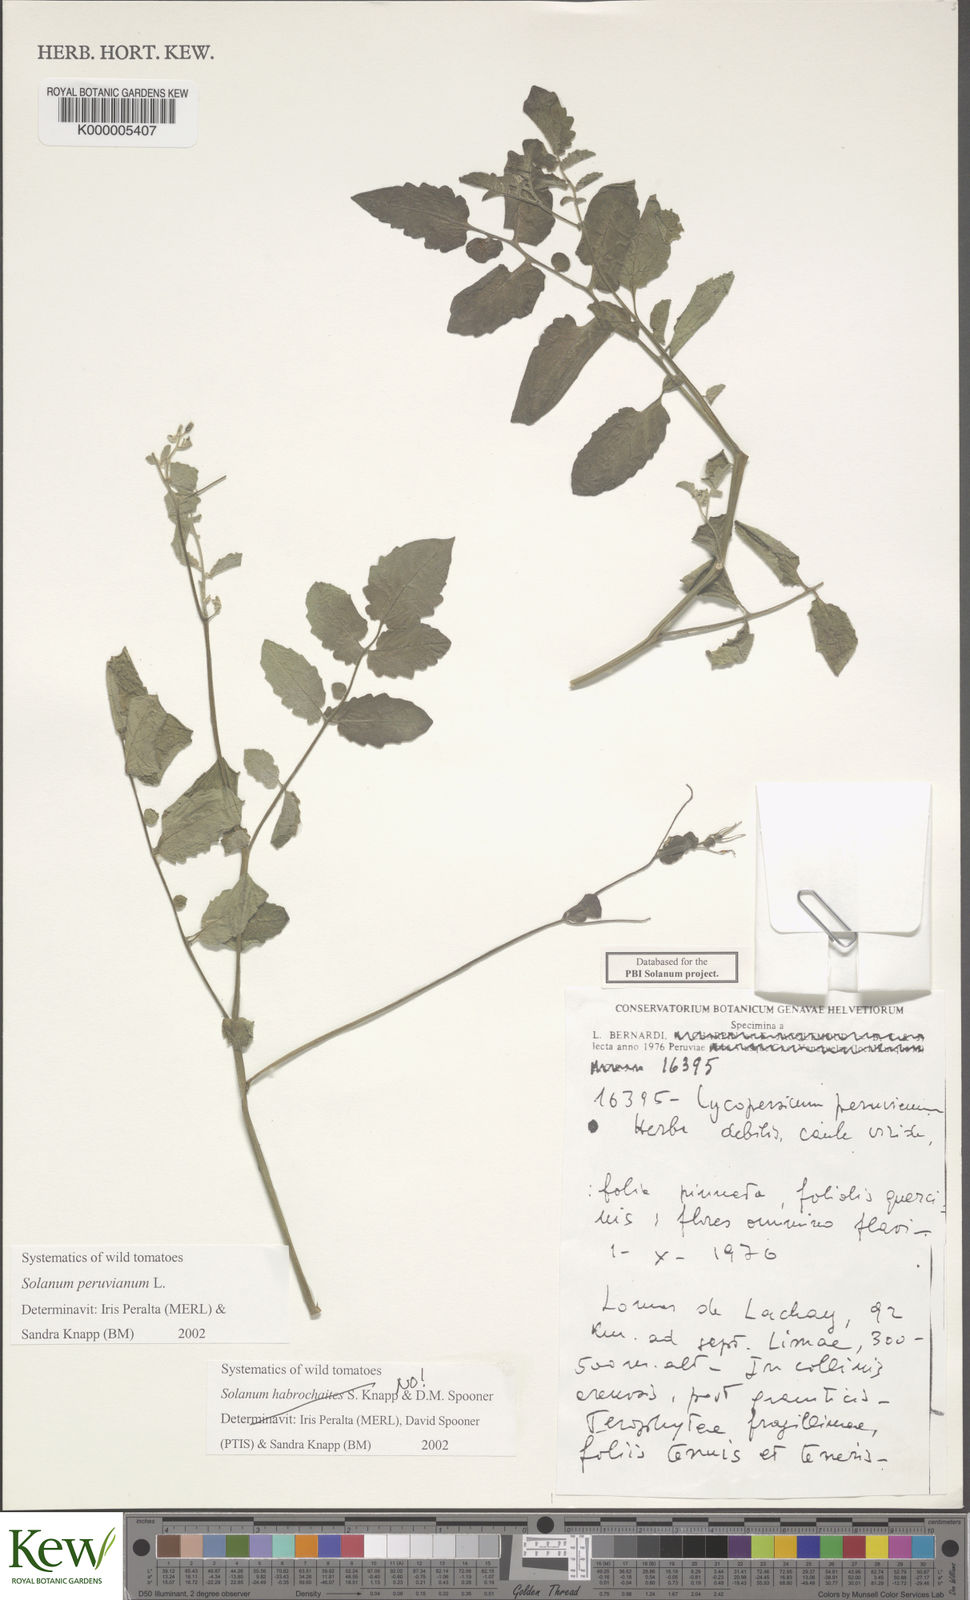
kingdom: Plantae
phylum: Tracheophyta
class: Magnoliopsida
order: Solanales
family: Solanaceae
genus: Solanum
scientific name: Solanum peruvianum
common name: Peruvian nightshade
